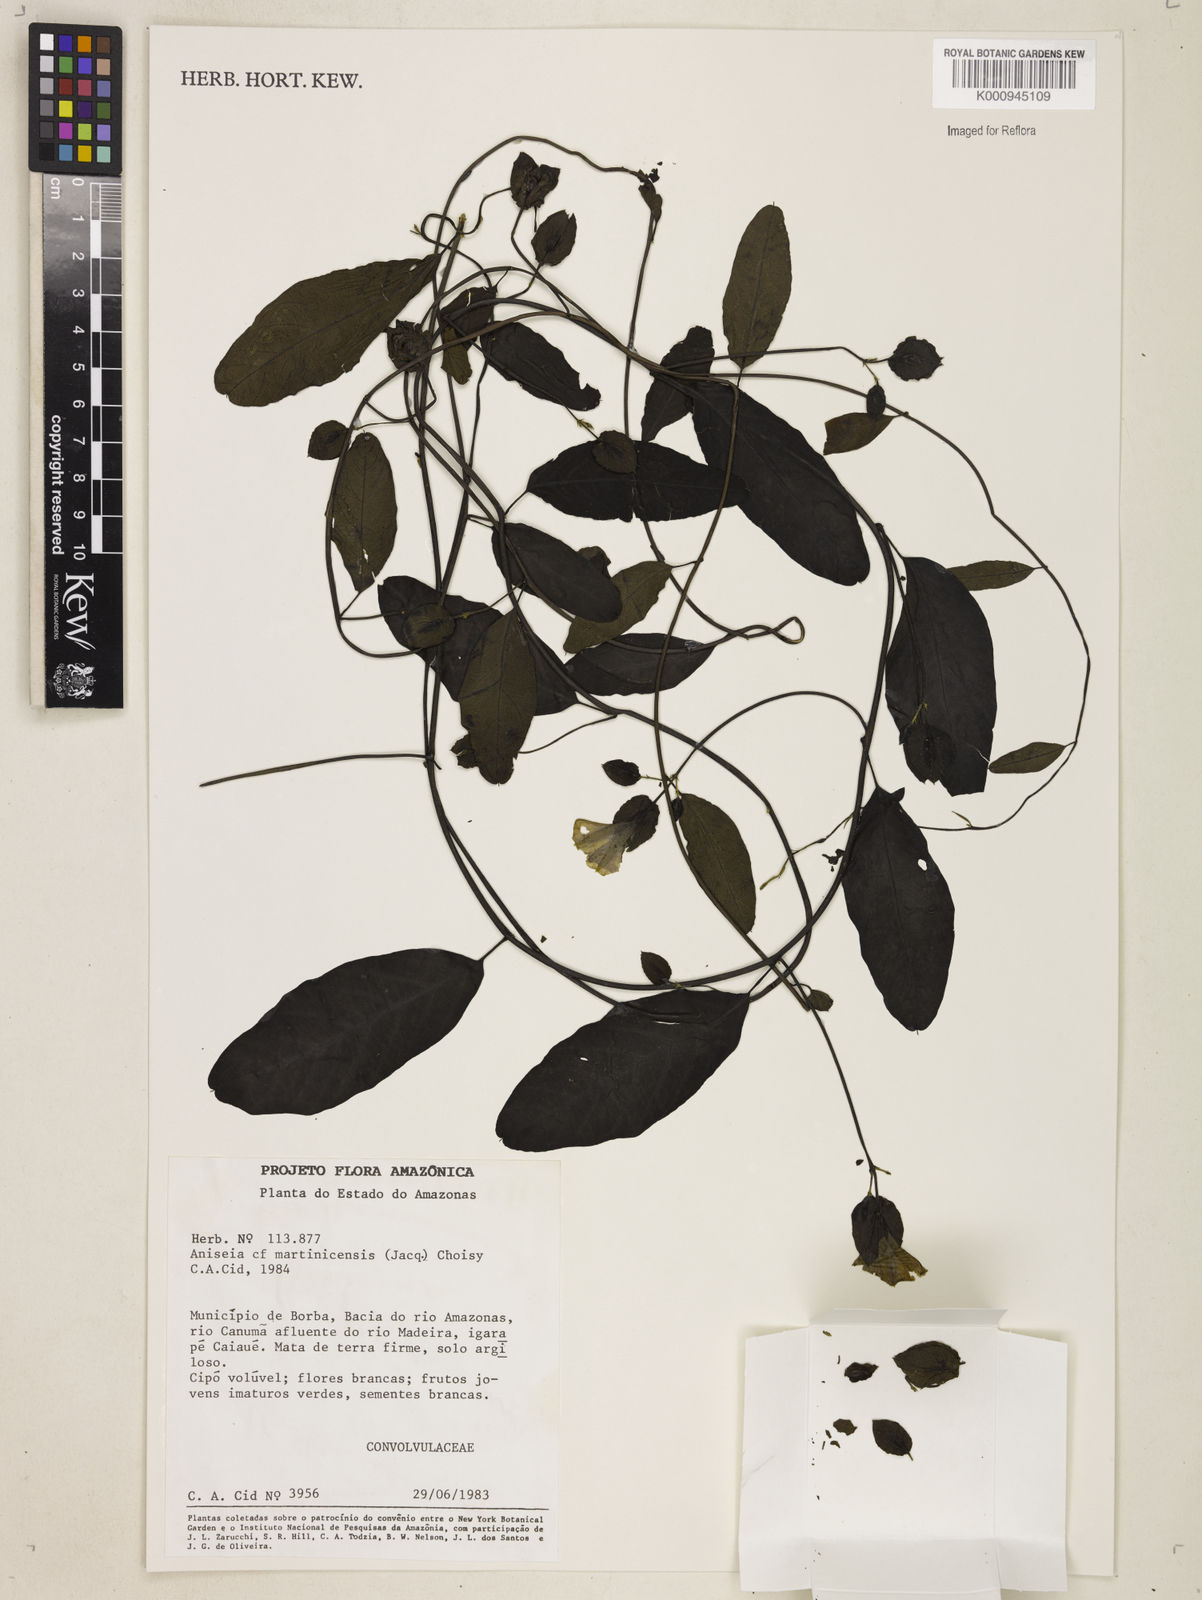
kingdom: Plantae
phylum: Tracheophyta
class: Magnoliopsida
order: Solanales
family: Convolvulaceae
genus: Aniseia
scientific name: Aniseia martinicensis
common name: Kulayadambu
